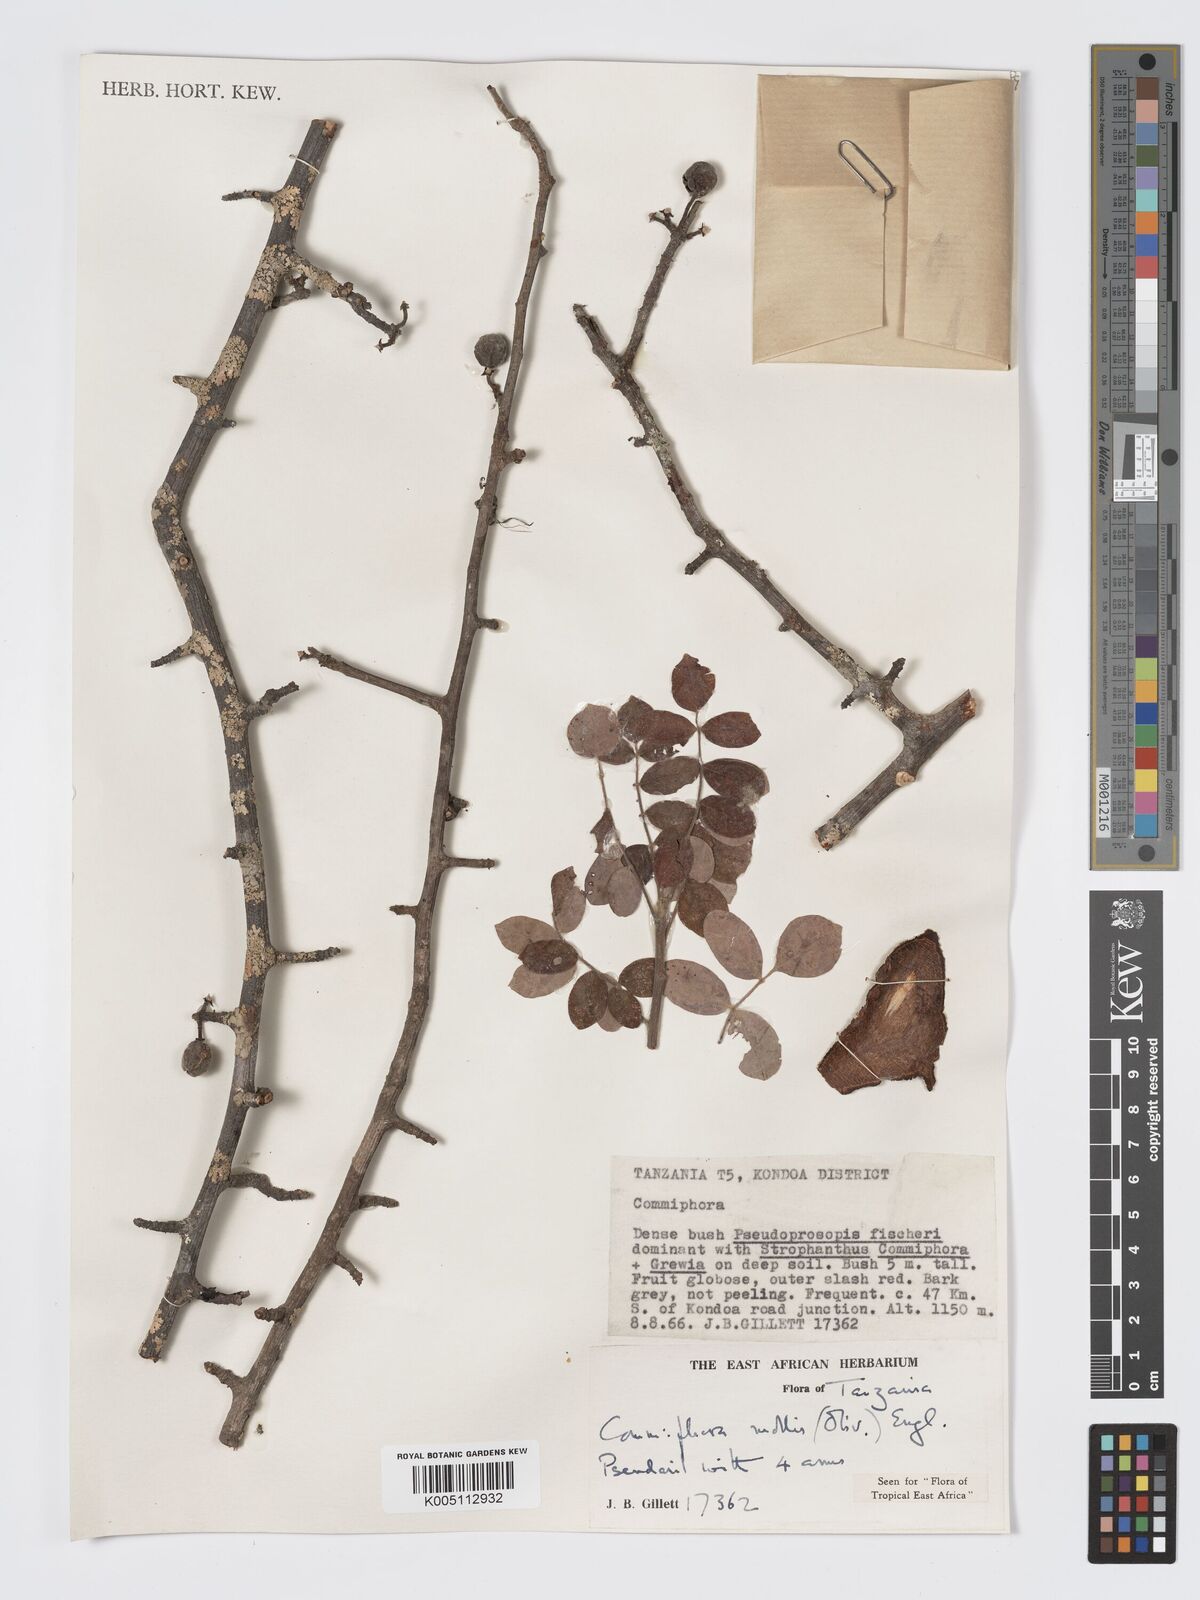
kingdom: Plantae
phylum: Tracheophyta
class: Magnoliopsida
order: Sapindales
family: Burseraceae
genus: Commiphora
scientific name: Commiphora
